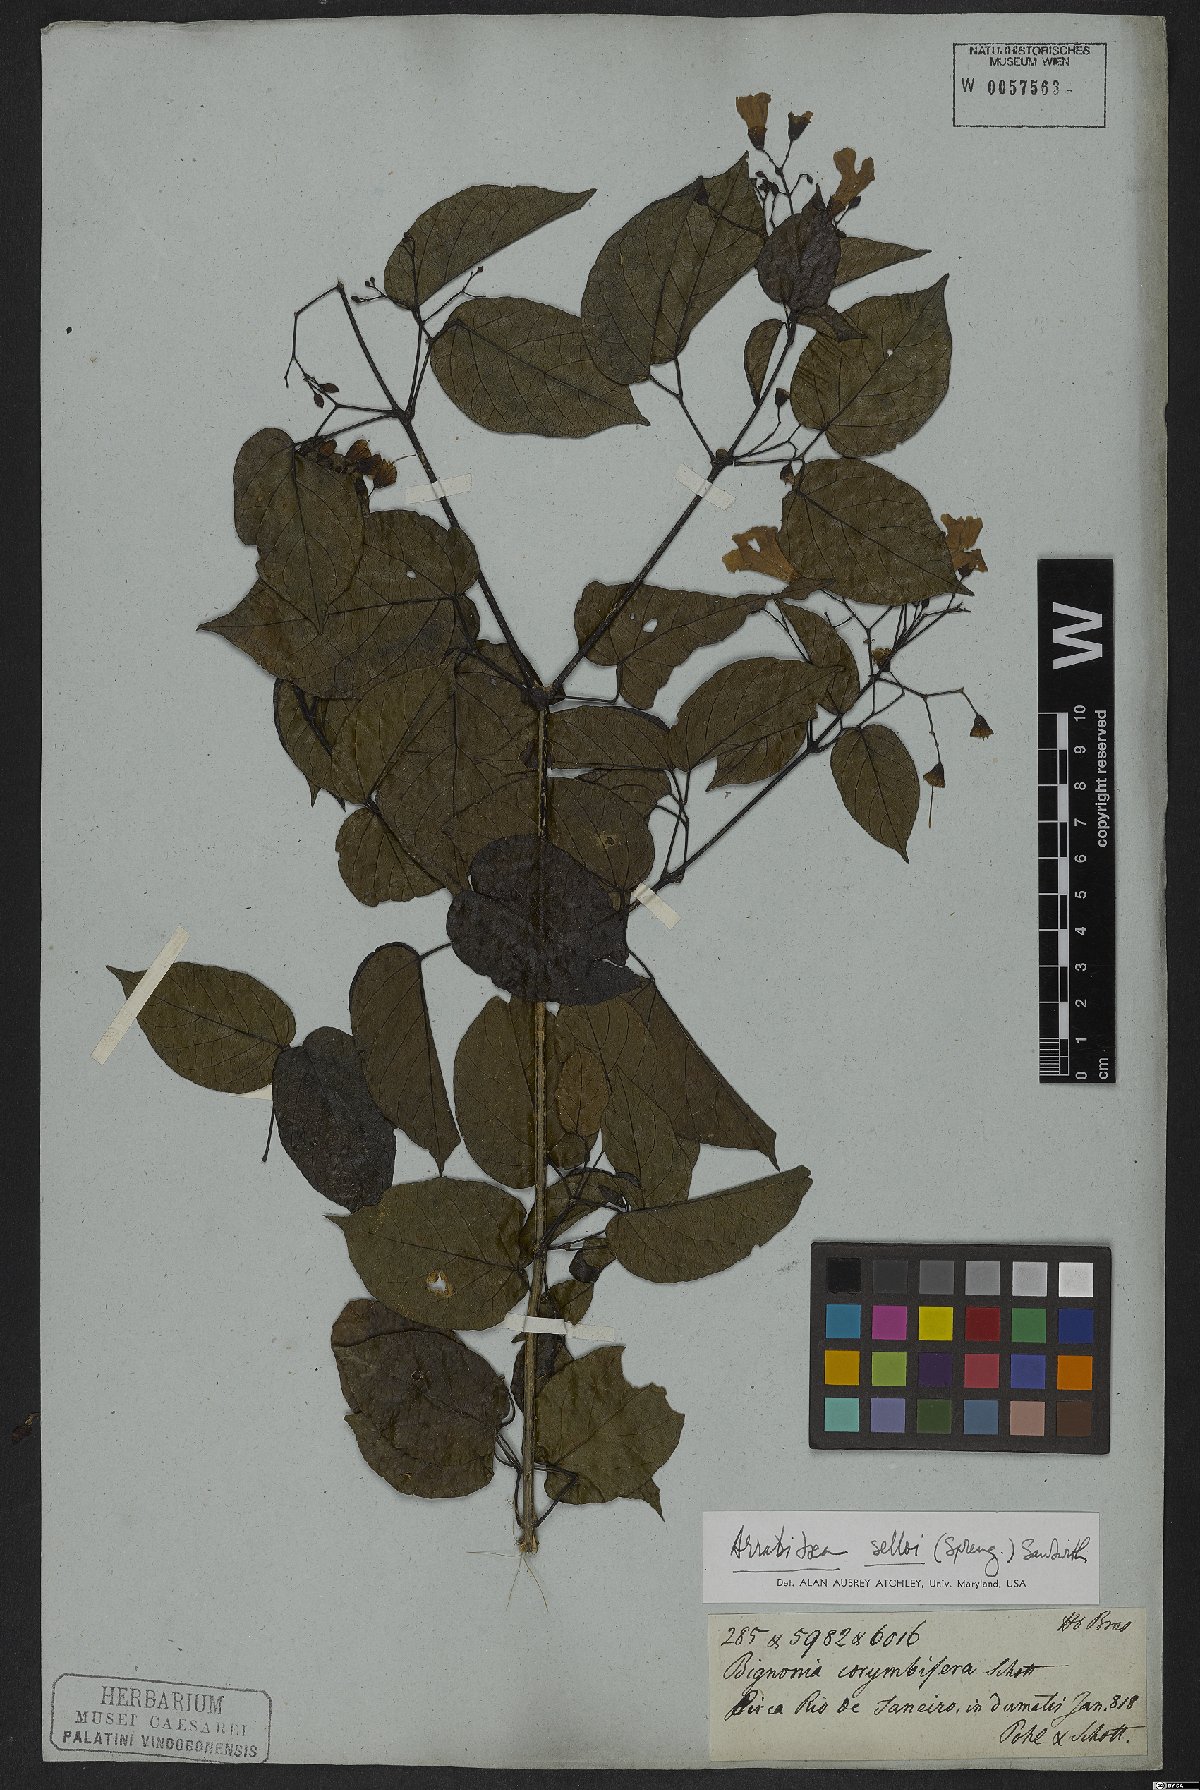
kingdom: Plantae
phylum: Tracheophyta
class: Magnoliopsida
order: Lamiales
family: Bignoniaceae
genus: Tanaecium
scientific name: Tanaecium selloi
